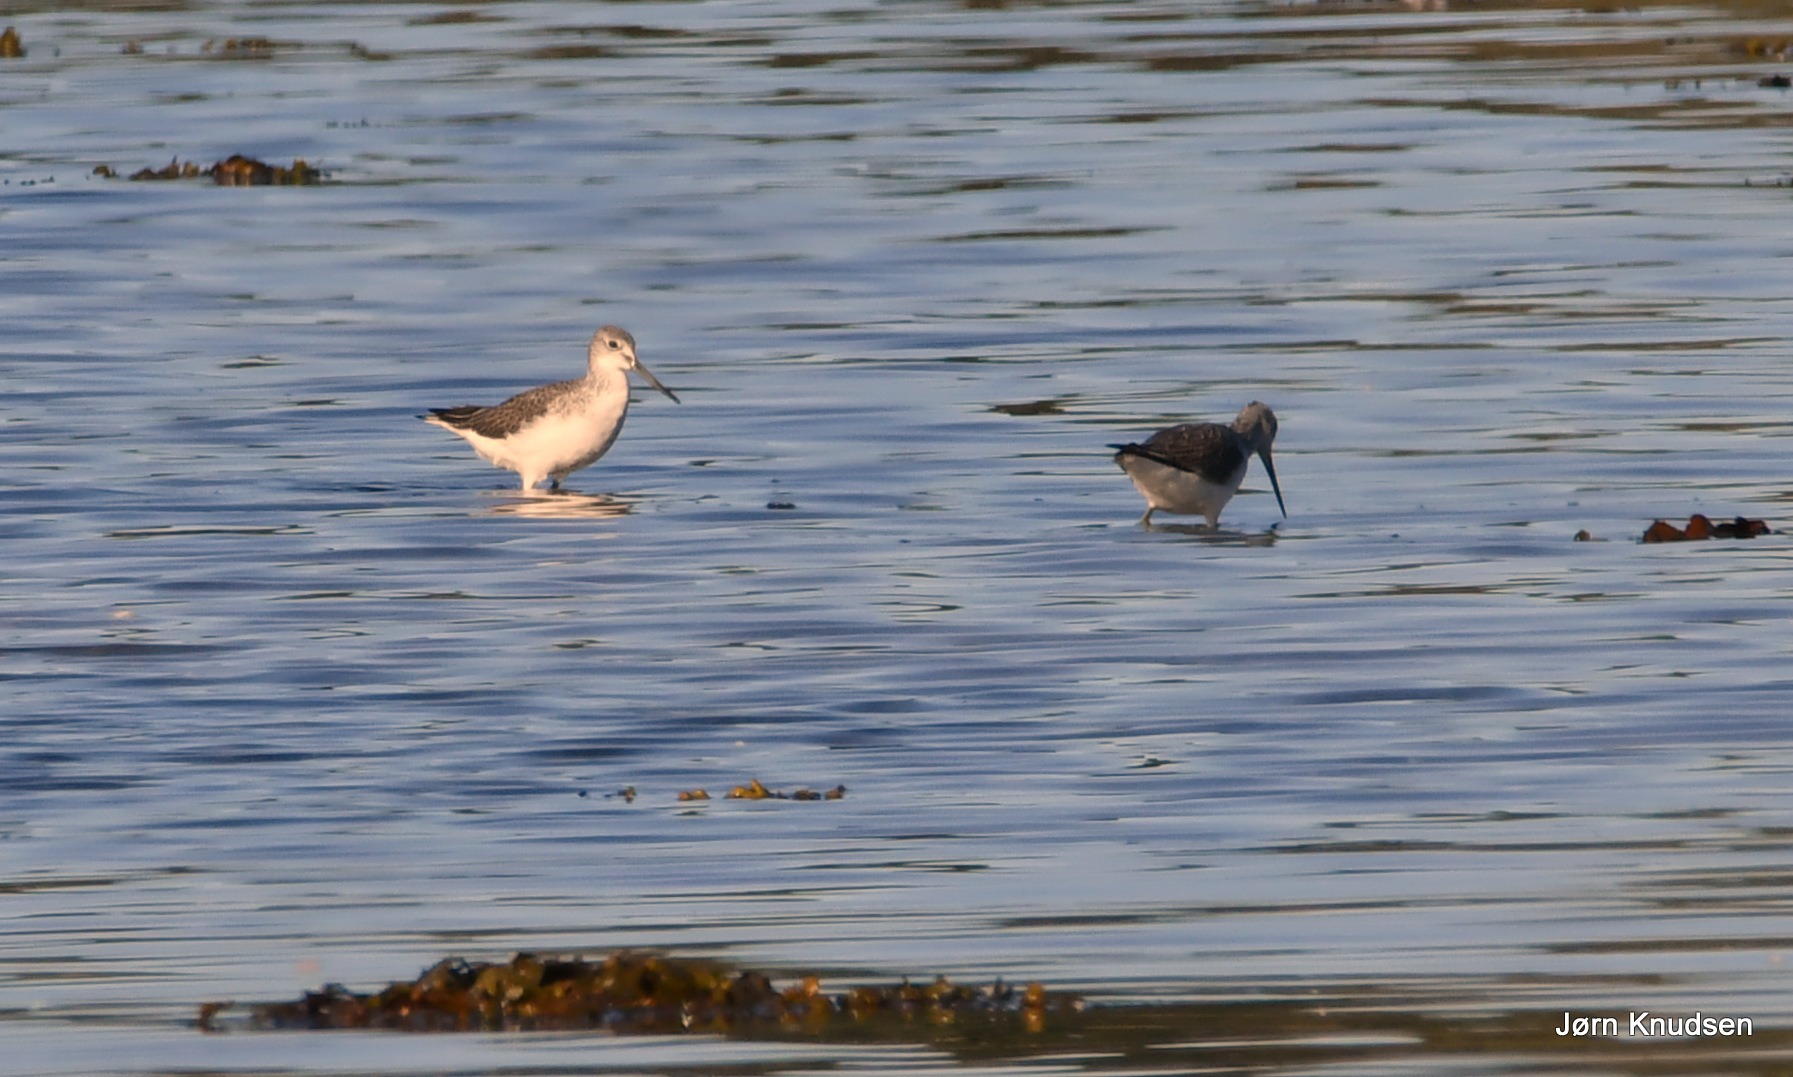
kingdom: Animalia
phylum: Chordata
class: Aves
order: Charadriiformes
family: Scolopacidae
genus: Tringa
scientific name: Tringa nebularia
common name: Hvidklire
